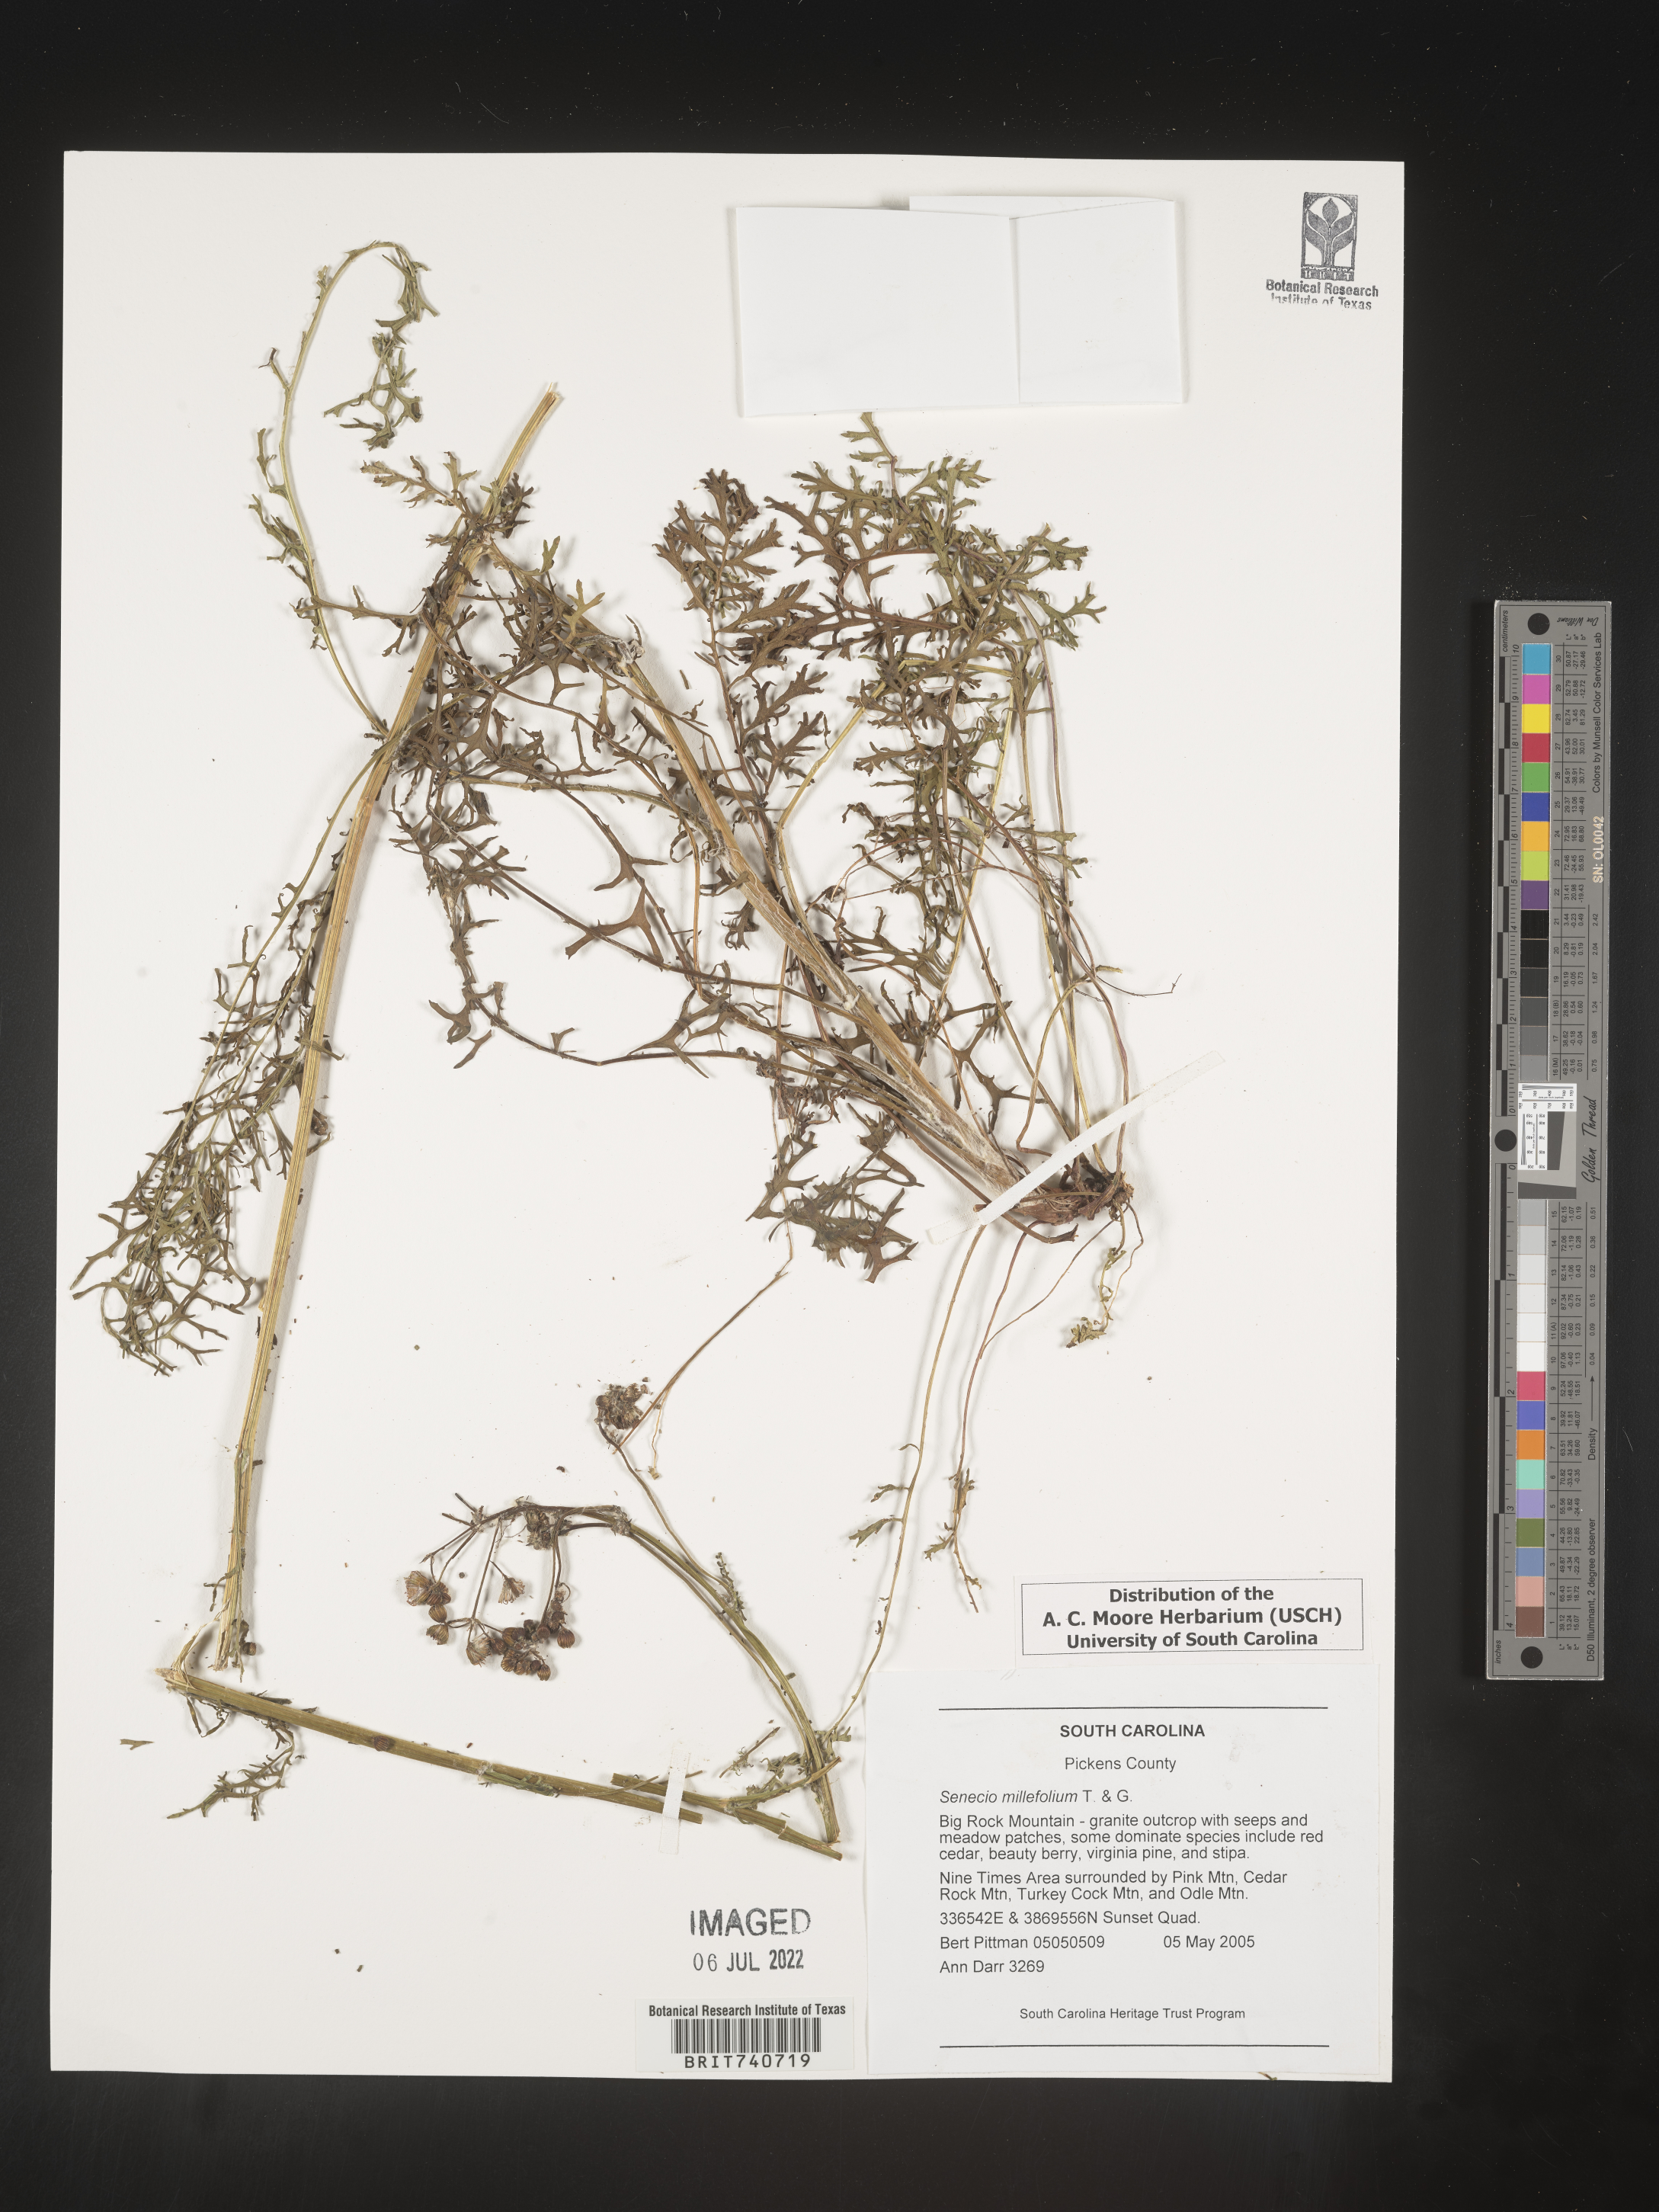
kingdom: Plantae
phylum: Tracheophyta
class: Magnoliopsida
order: Asterales
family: Asteraceae
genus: Packera
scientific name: Packera millefolia
